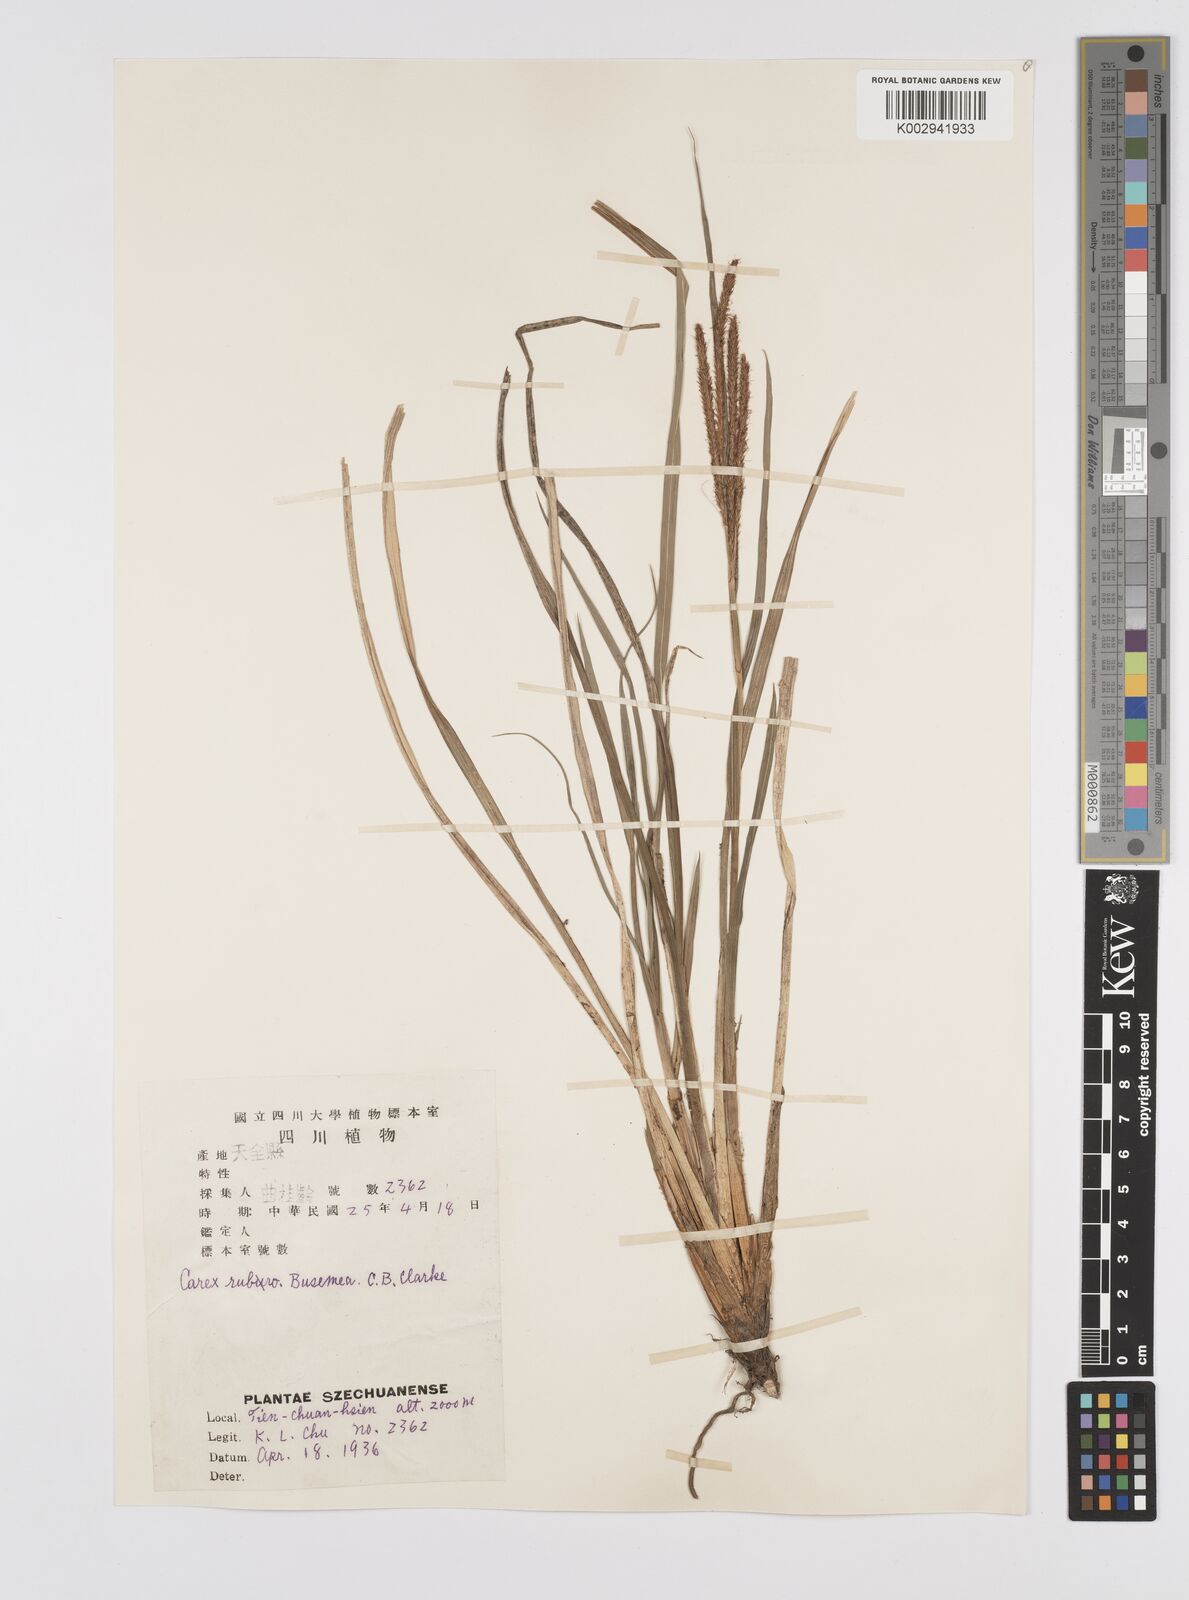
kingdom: Plantae
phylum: Tracheophyta
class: Liliopsida
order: Poales
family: Cyperaceae
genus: Carex
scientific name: Carex tumida
